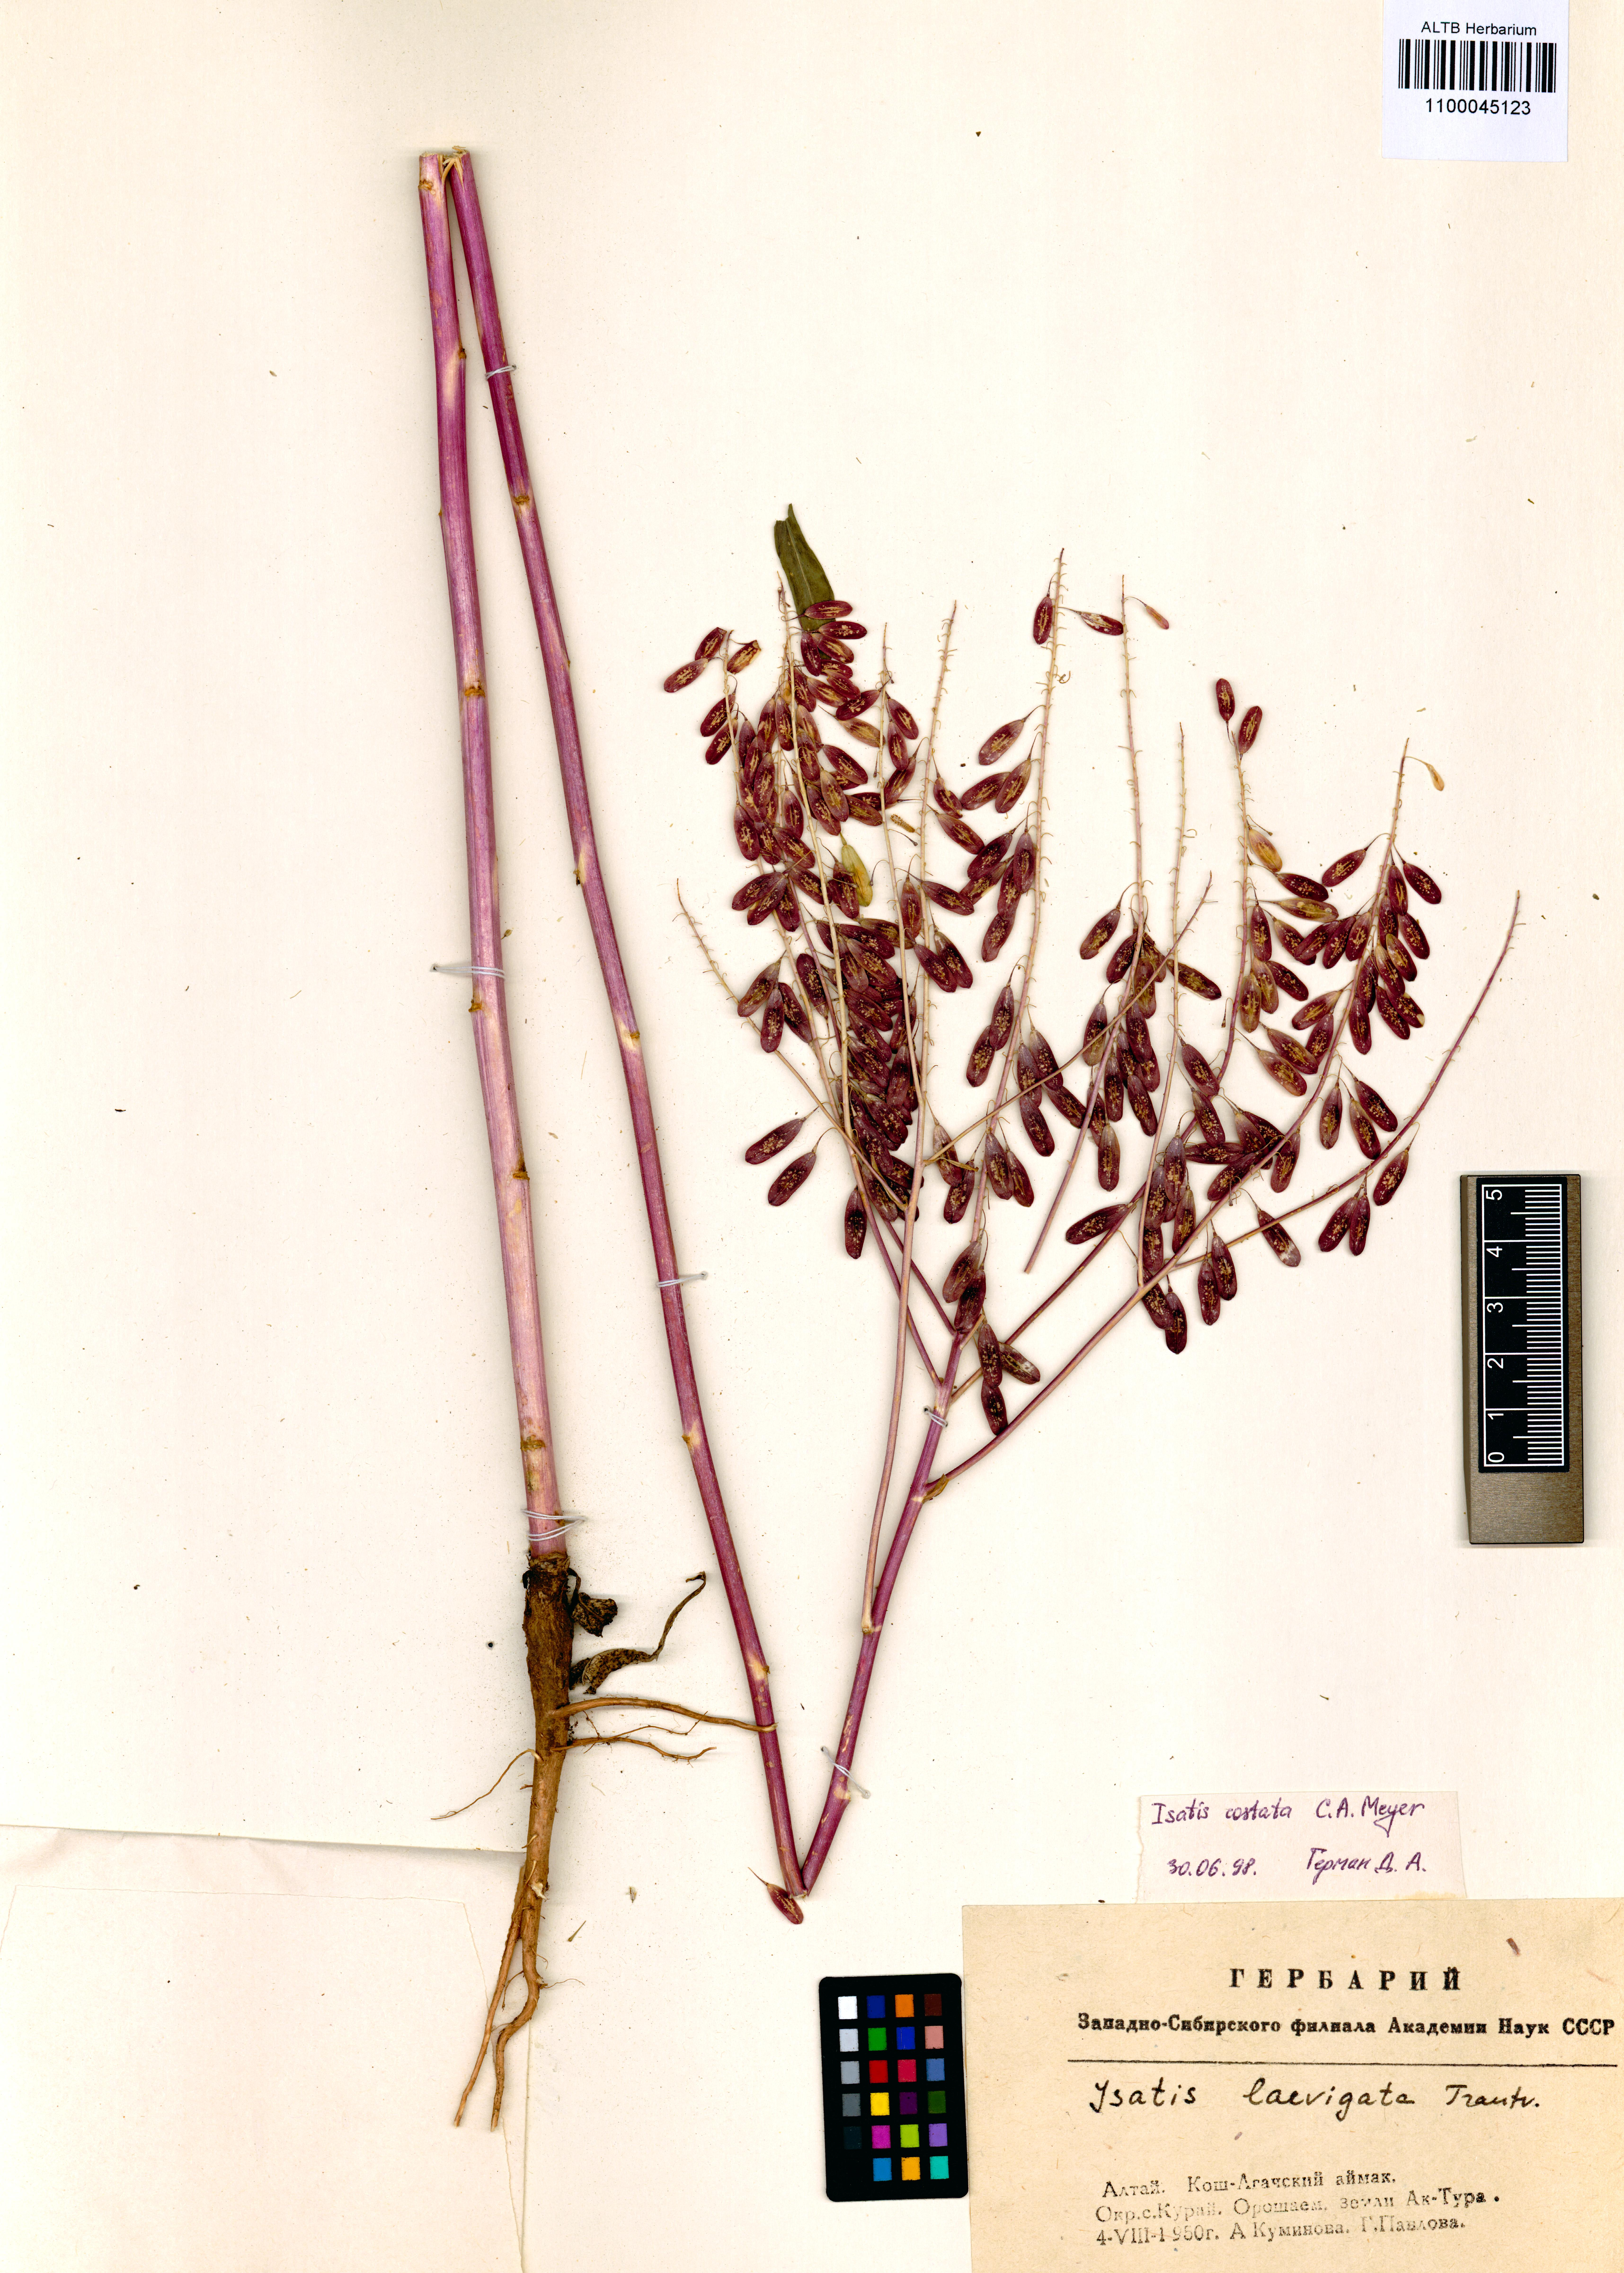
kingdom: Plantae
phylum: Tracheophyta
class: Magnoliopsida
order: Brassicales
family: Brassicaceae
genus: Isatis
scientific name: Isatis costata
